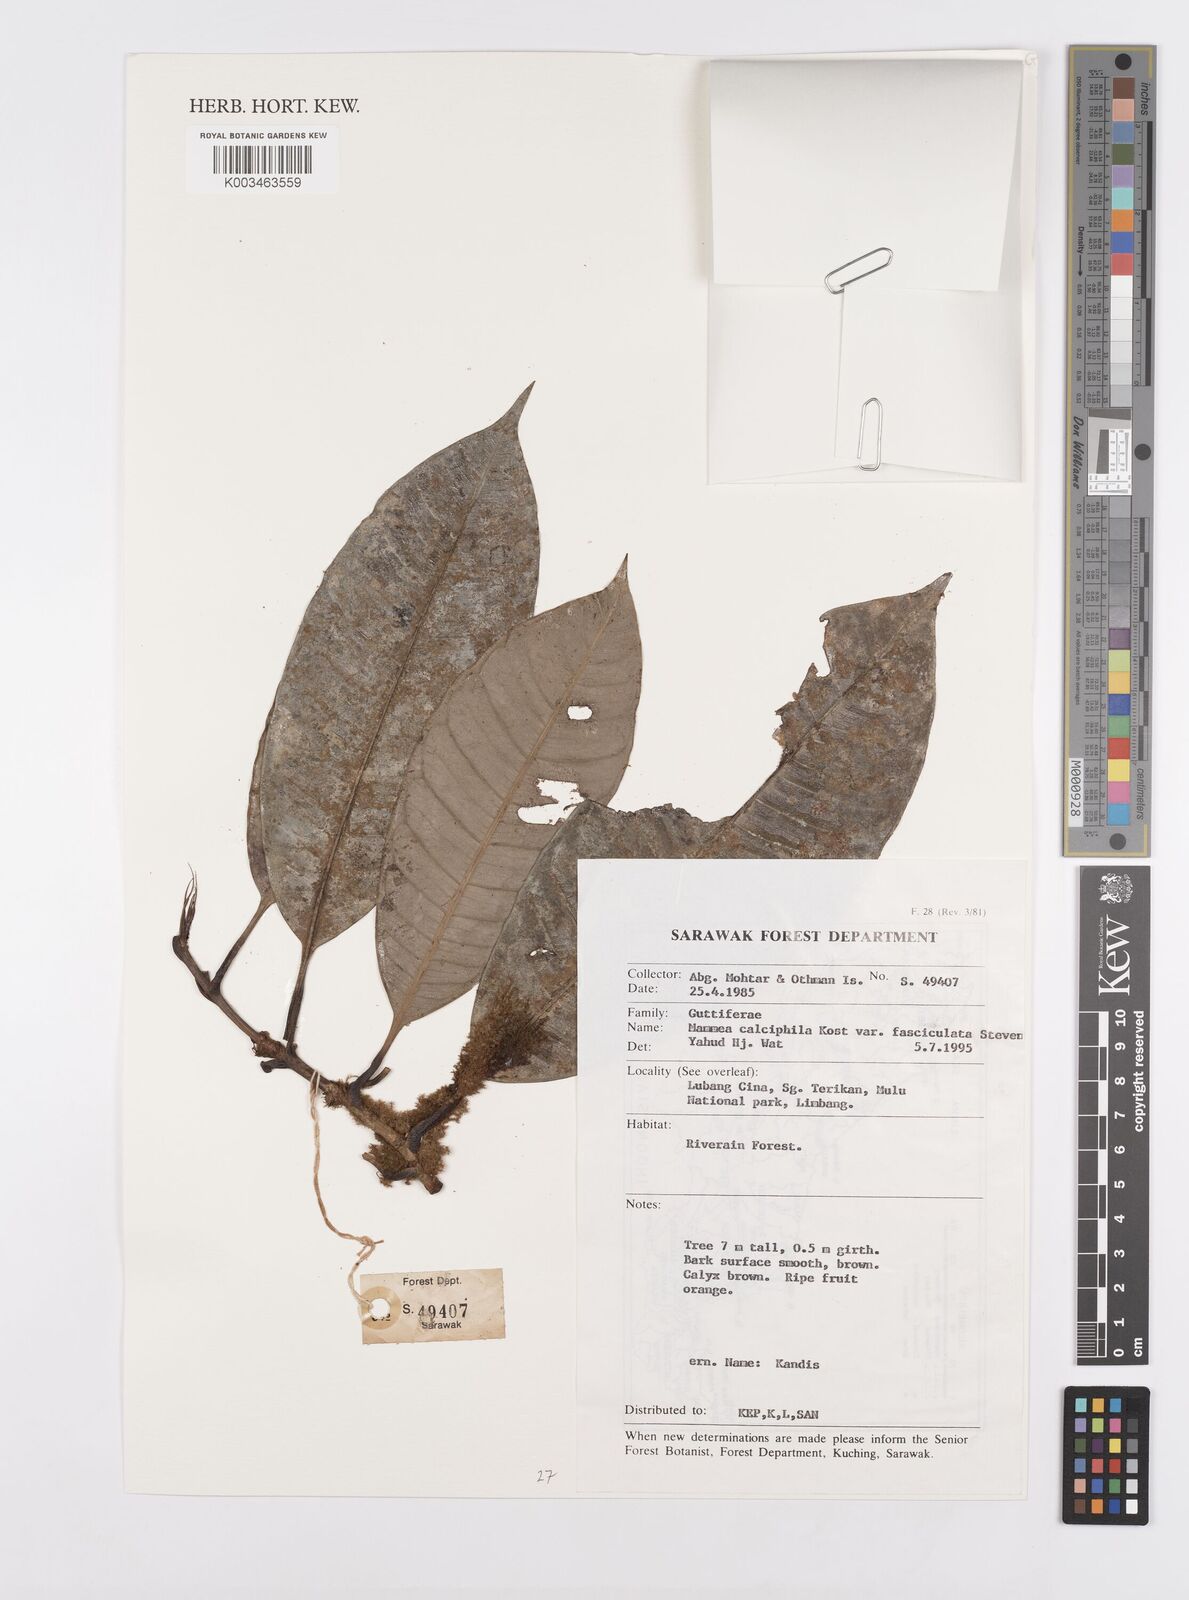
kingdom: Plantae
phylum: Tracheophyta
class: Magnoliopsida
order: Malpighiales
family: Calophyllaceae
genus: Mammea
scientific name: Mammea calciphila
